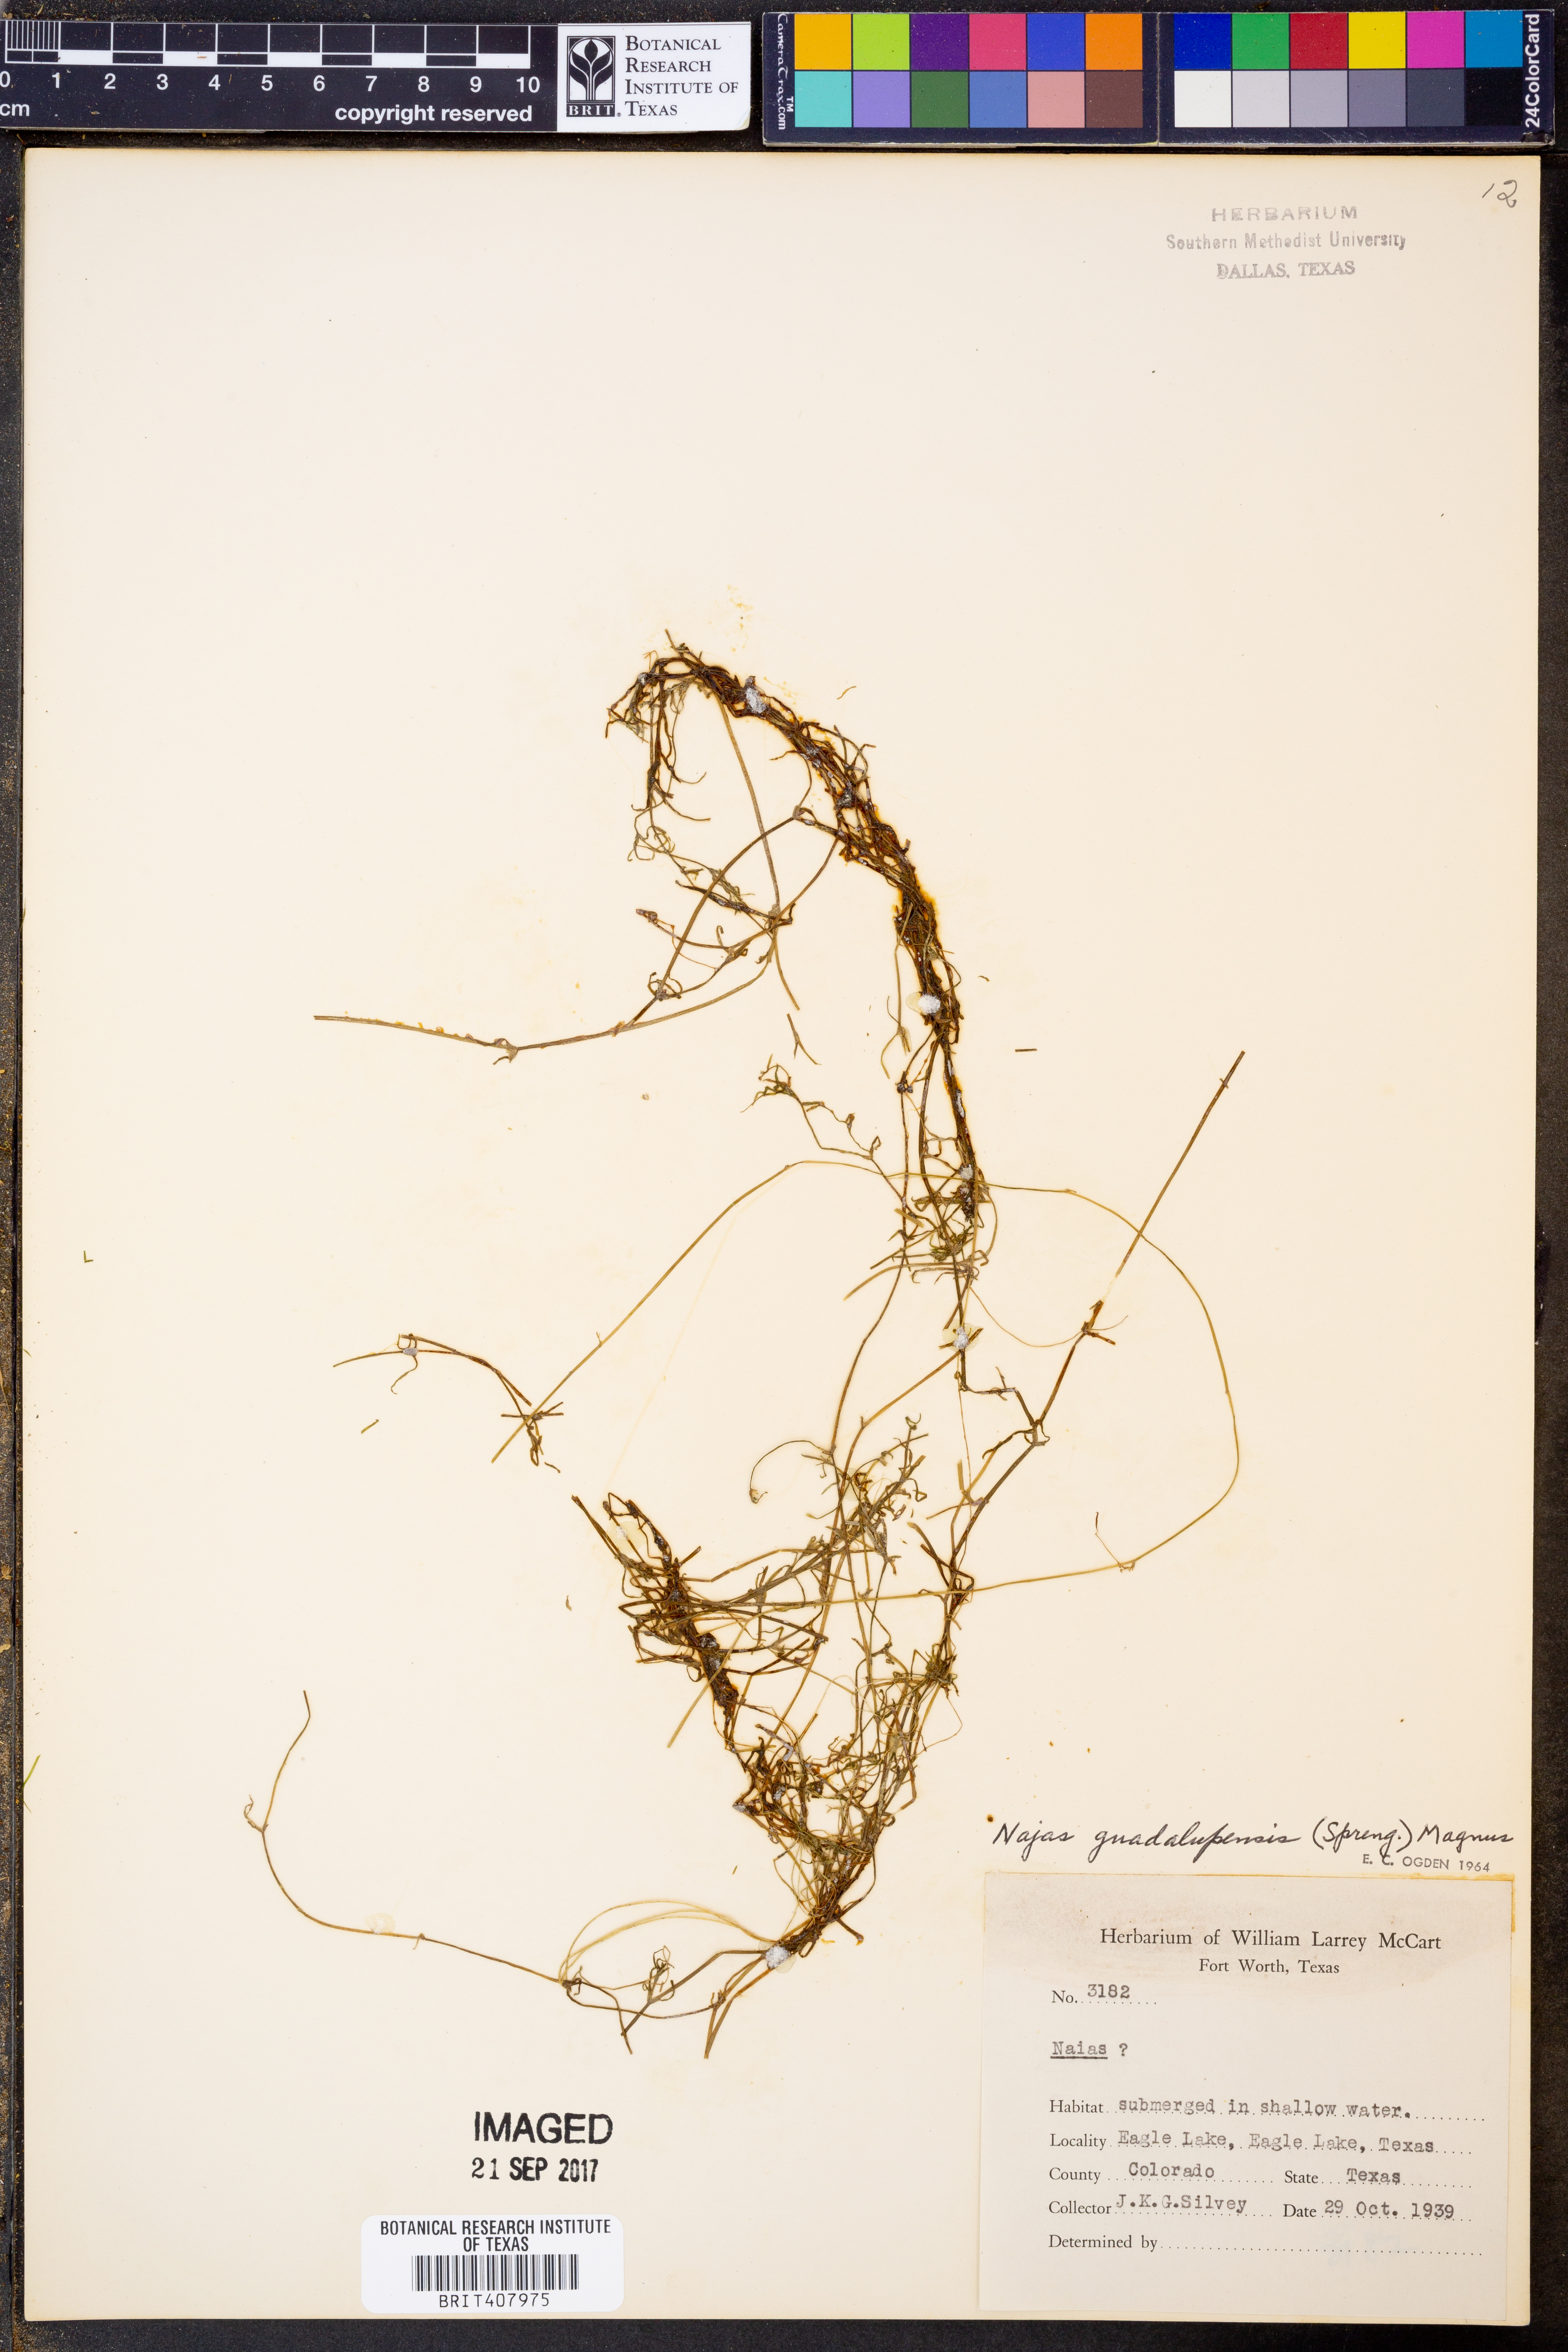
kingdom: Plantae
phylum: Tracheophyta
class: Liliopsida
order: Alismatales
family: Hydrocharitaceae
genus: Najas
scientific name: Najas guadalupensis
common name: Southern naiad
